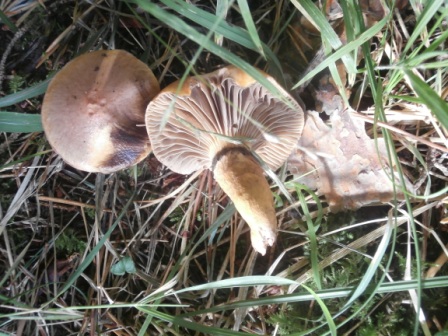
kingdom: Fungi
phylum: Basidiomycota
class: Agaricomycetes
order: Boletales
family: Gomphidiaceae
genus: Chroogomphus
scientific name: Chroogomphus rutilus
